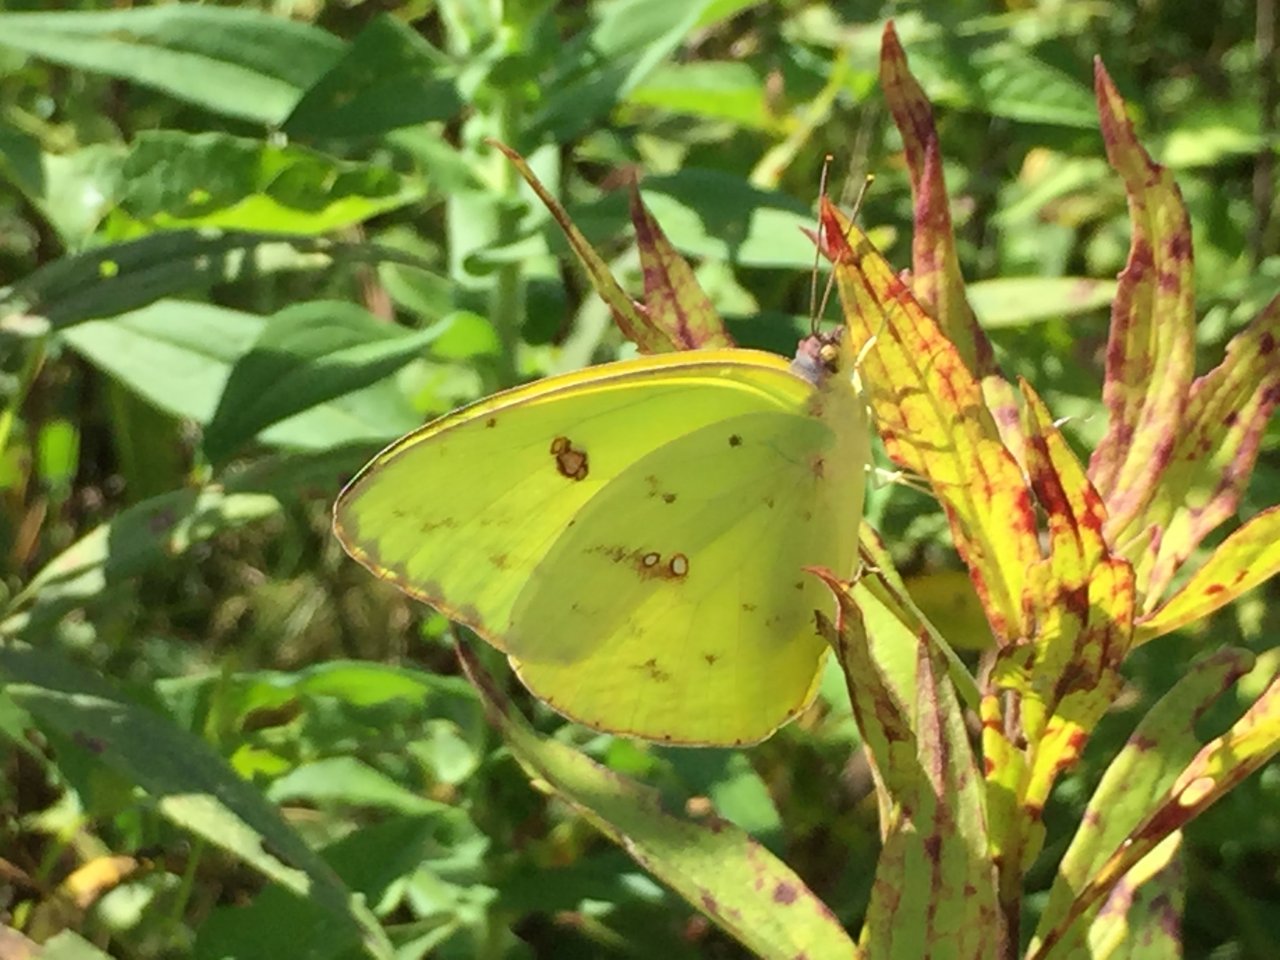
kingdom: Animalia
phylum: Arthropoda
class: Insecta
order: Lepidoptera
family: Pieridae
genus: Phoebis
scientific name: Phoebis sennae
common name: Cloudless Sulphur
